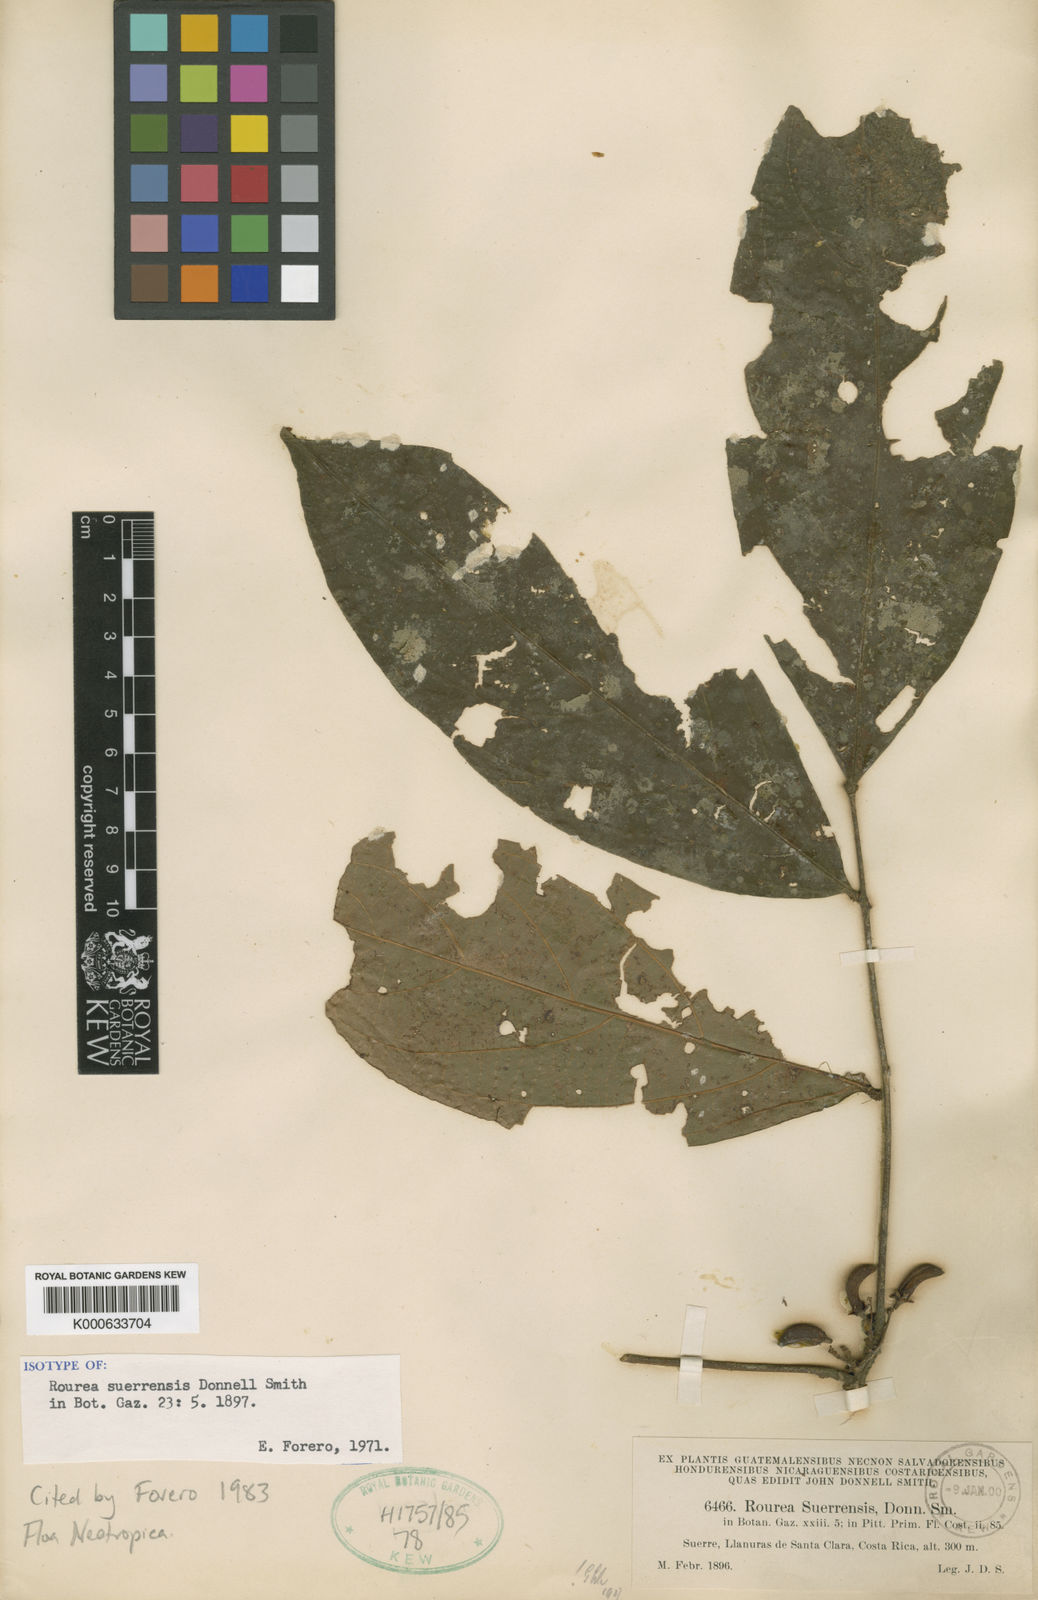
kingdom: Plantae
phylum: Tracheophyta
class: Magnoliopsida
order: Oxalidales
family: Connaraceae
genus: Rourea
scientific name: Rourea suerrensis
